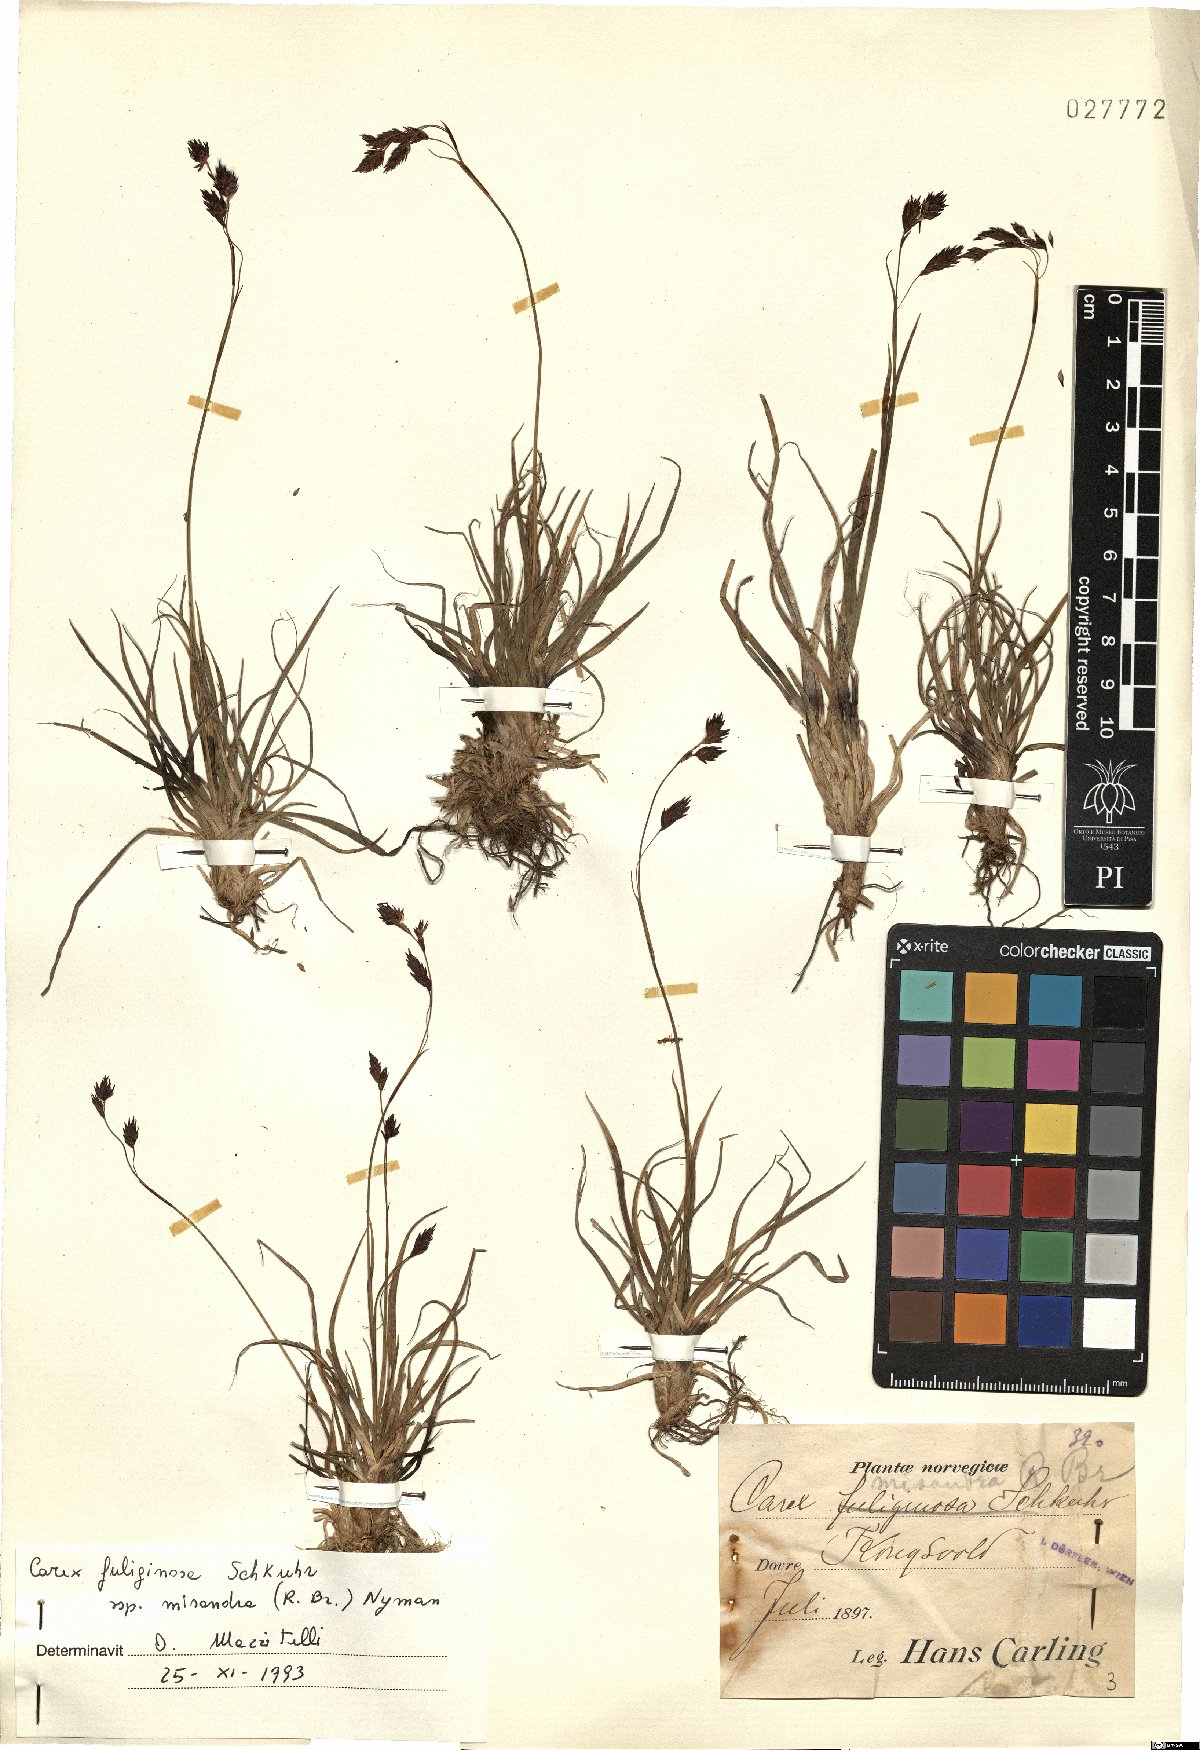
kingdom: Plantae
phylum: Tracheophyta
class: Liliopsida
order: Poales
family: Cyperaceae
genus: Carex
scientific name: Carex fuliginosa
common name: Few-flowered sedge
